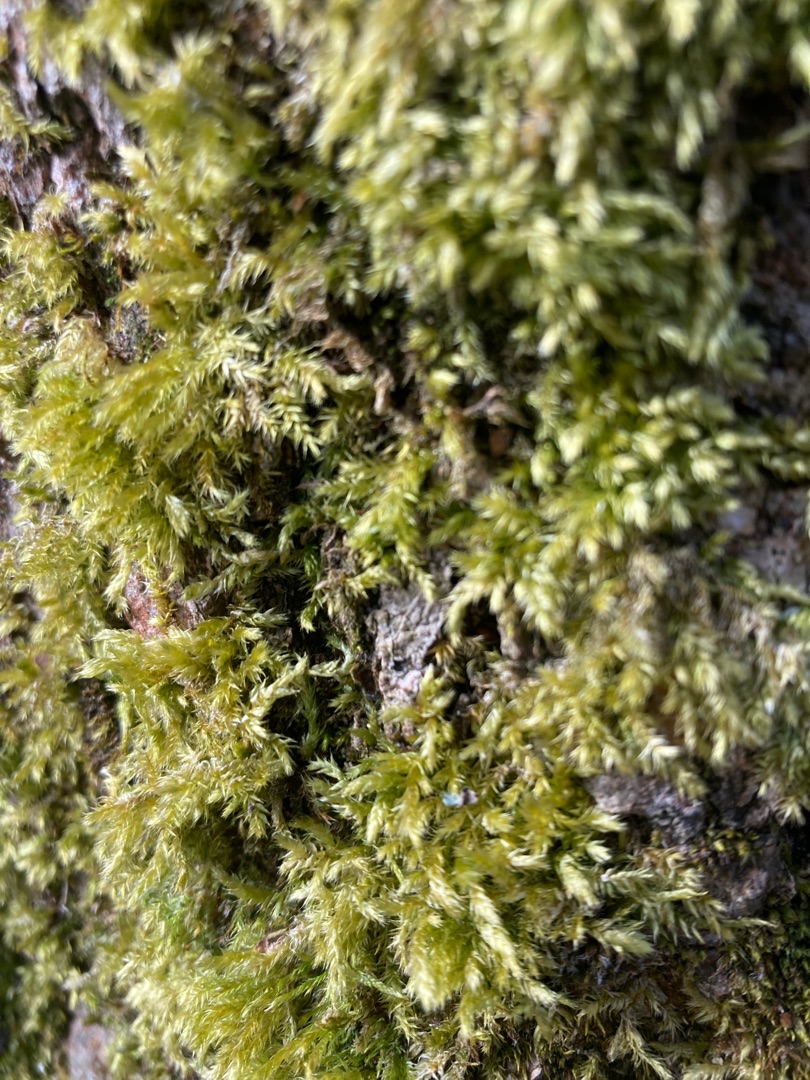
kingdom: Plantae
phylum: Bryophyta
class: Bryopsida
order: Hypnales
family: Brachytheciaceae
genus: Brachythecium
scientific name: Brachythecium rutabulum
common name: Almindelig kortkapsel
